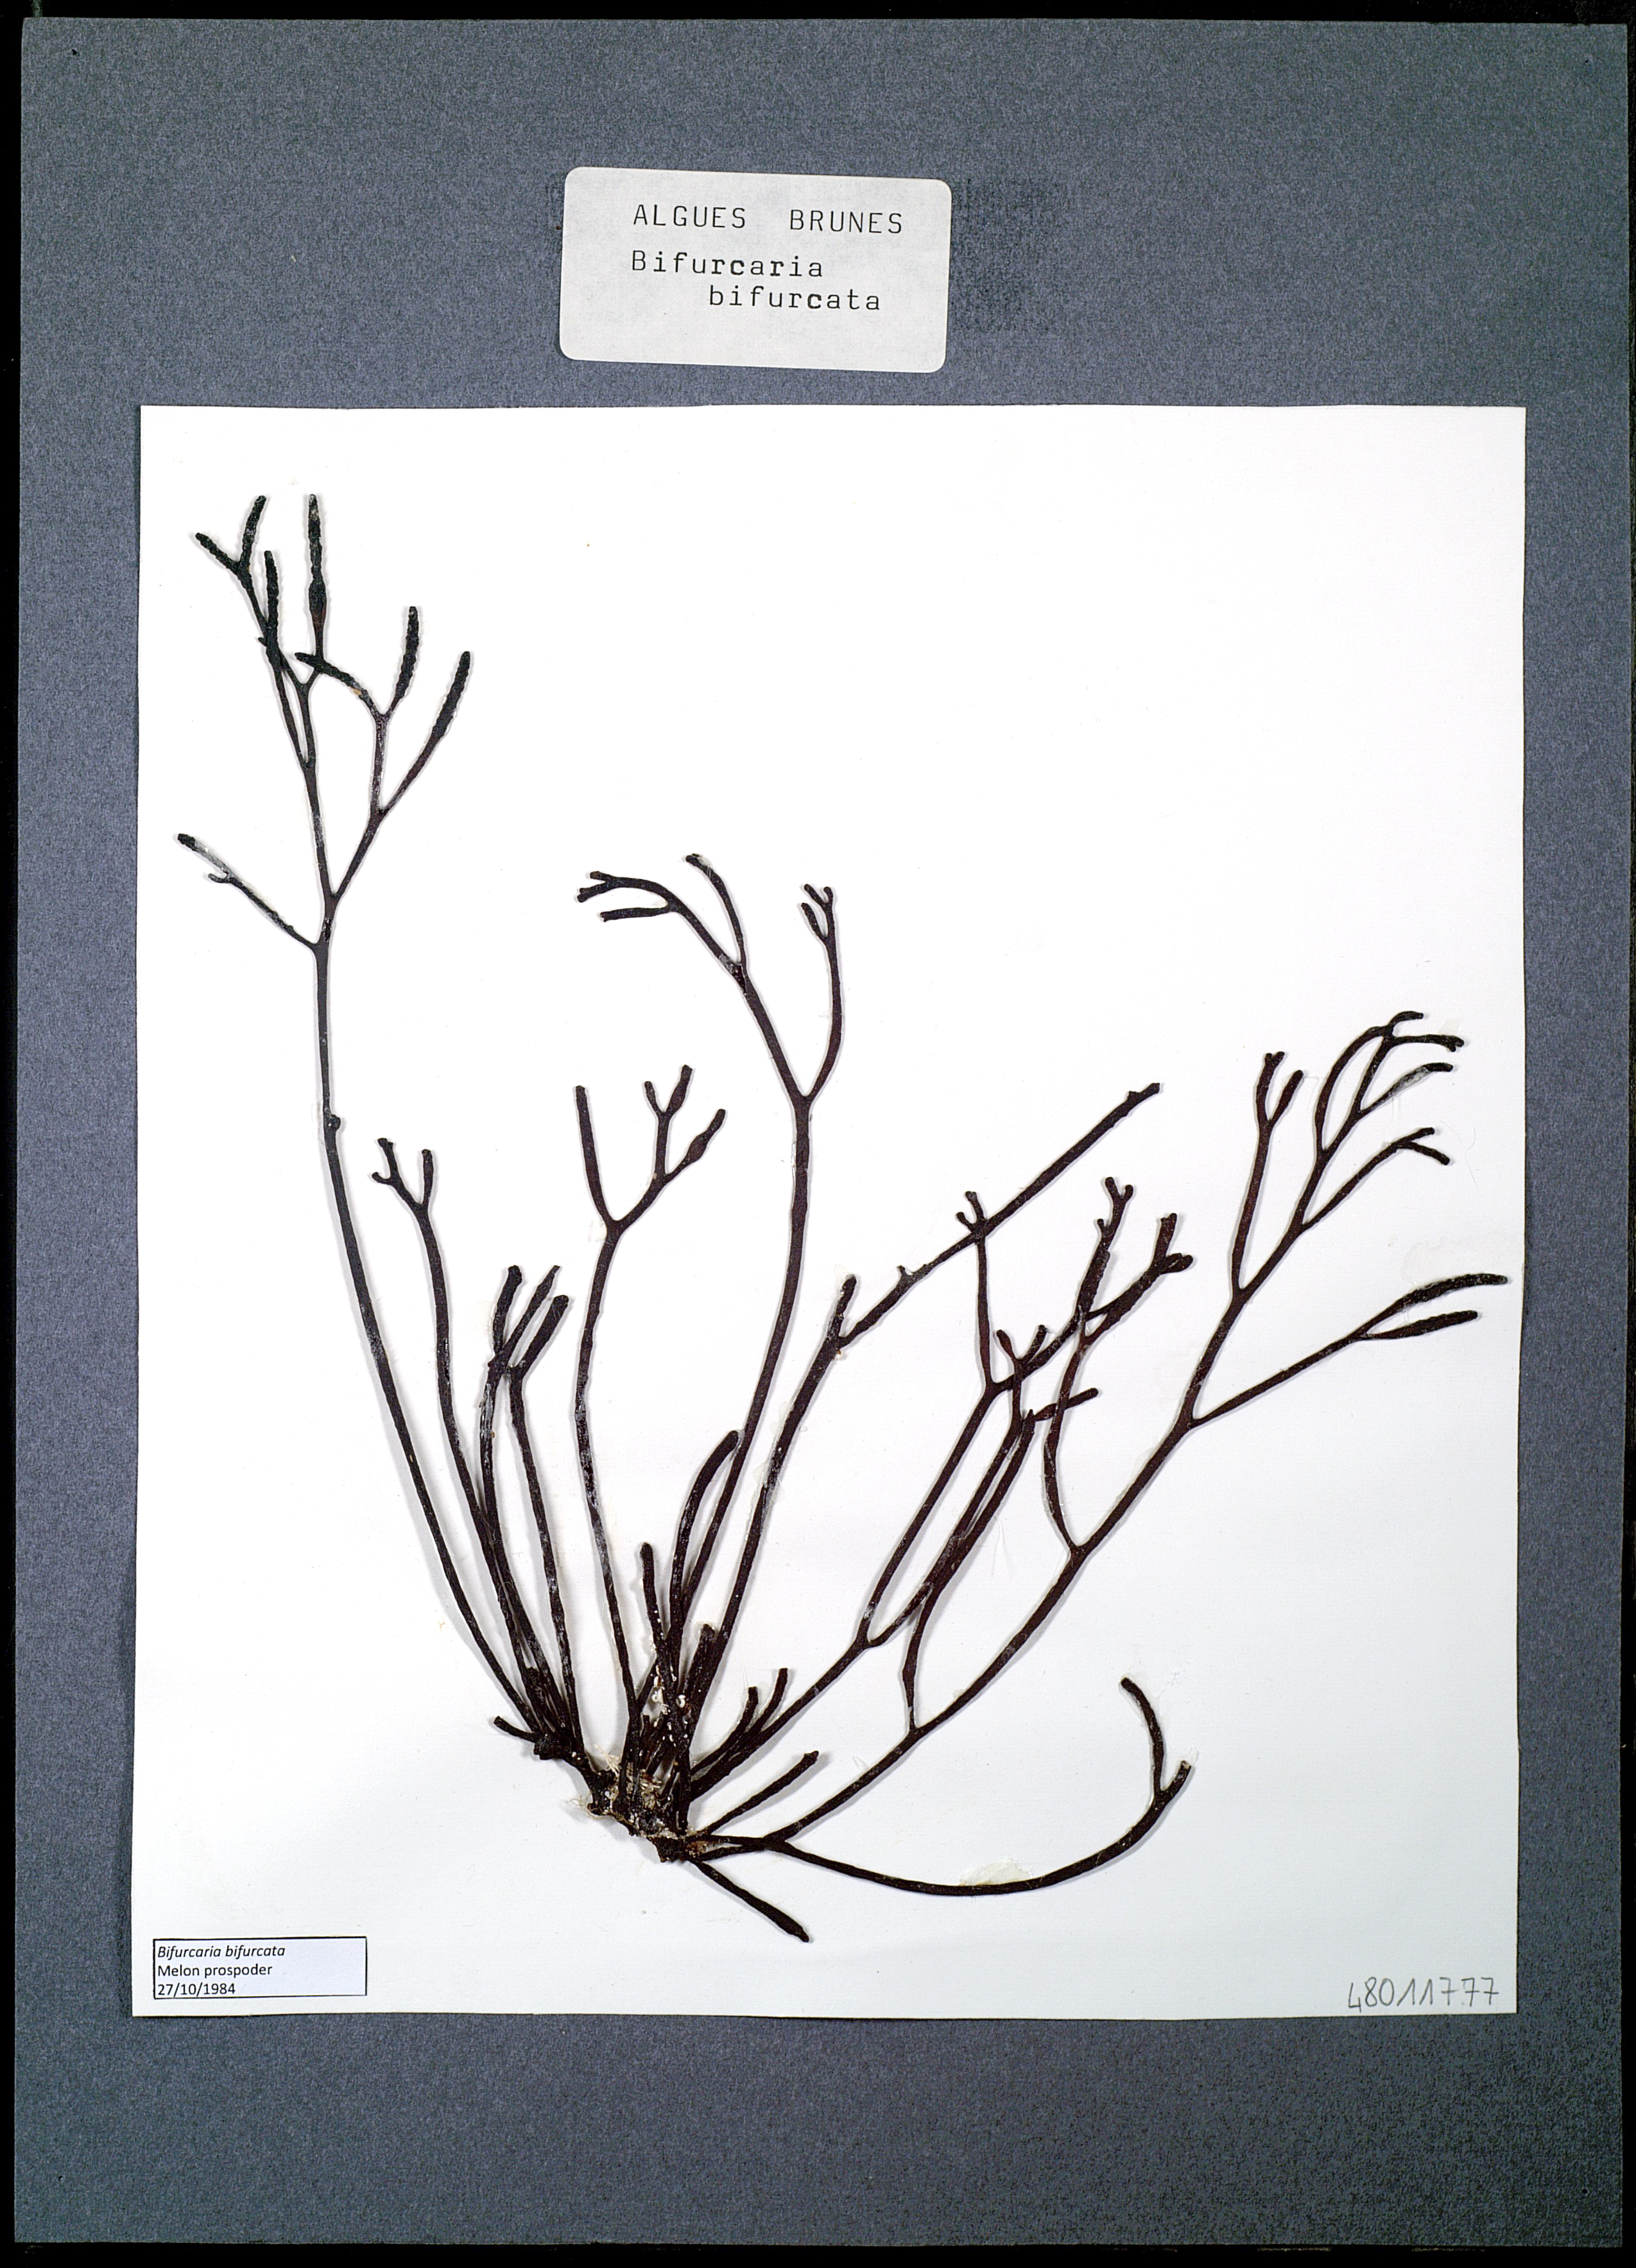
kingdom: Chromista
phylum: Ochrophyta
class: Phaeophyceae
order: Fucales
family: Sargassaceae
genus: Bifurcaria
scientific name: Bifurcaria bifurcata
